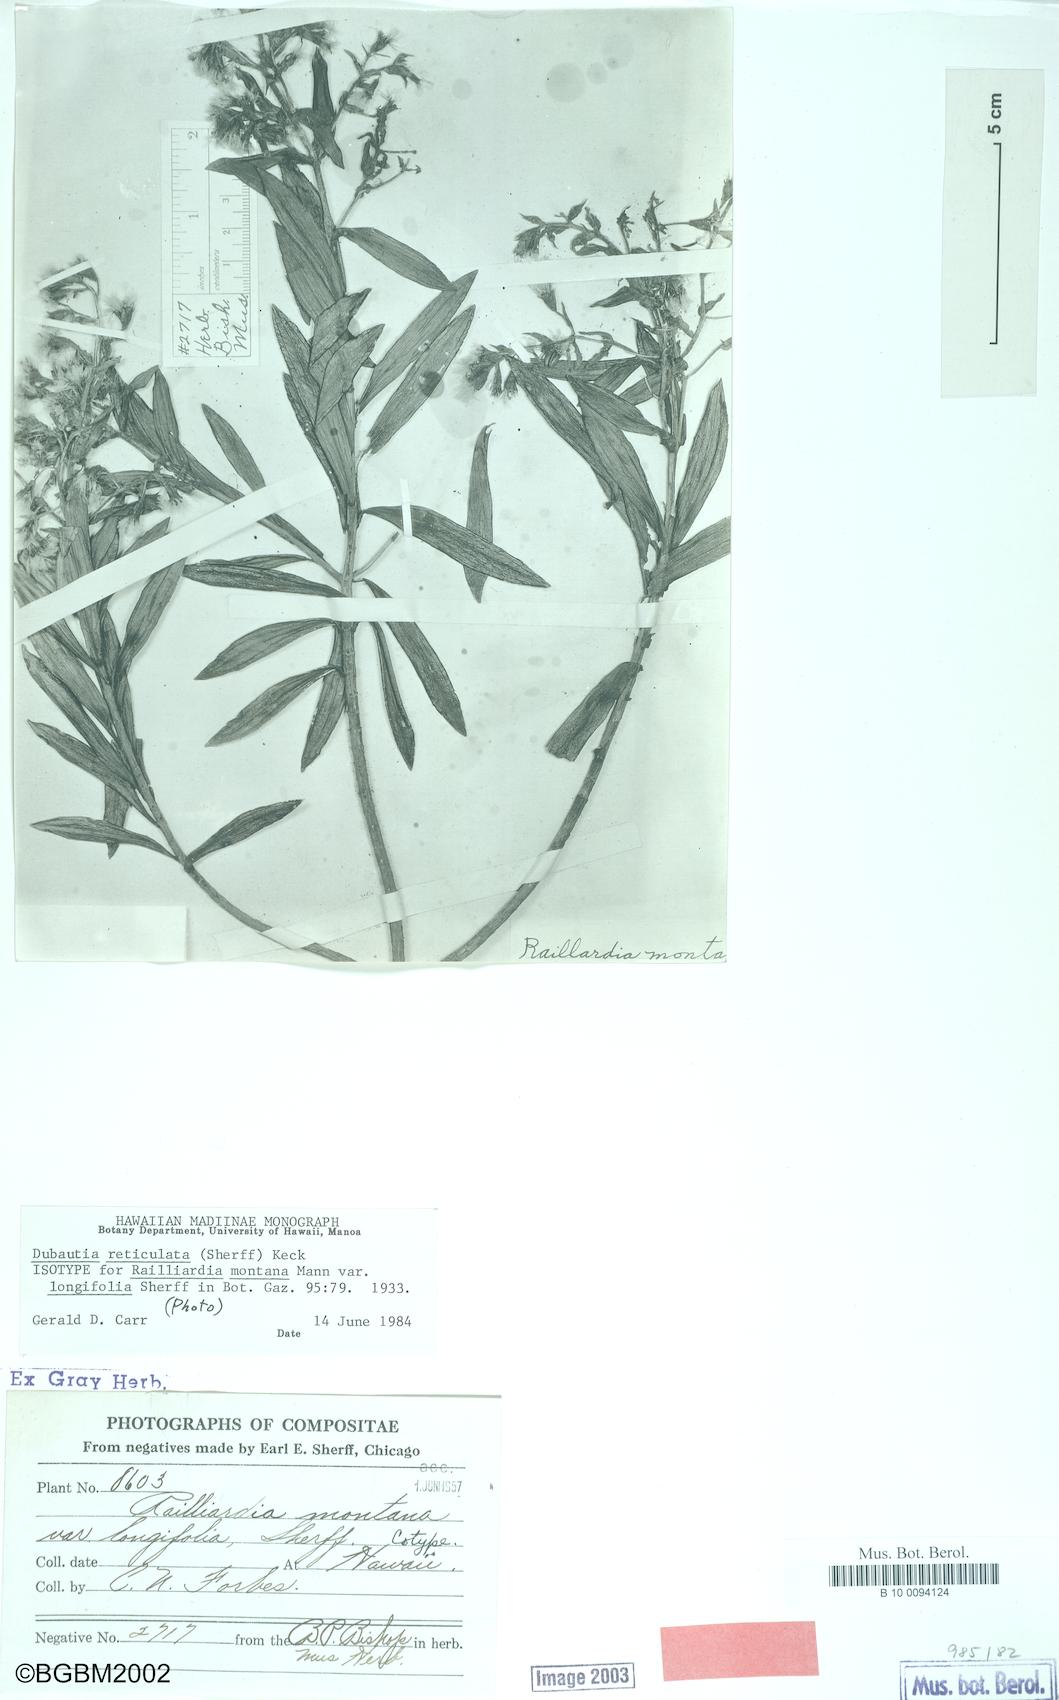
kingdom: Plantae
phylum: Tracheophyta
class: Magnoliopsida
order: Asterales
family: Asteraceae
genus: Dubautia
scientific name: Dubautia reticulata
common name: Net-veined dubautia
